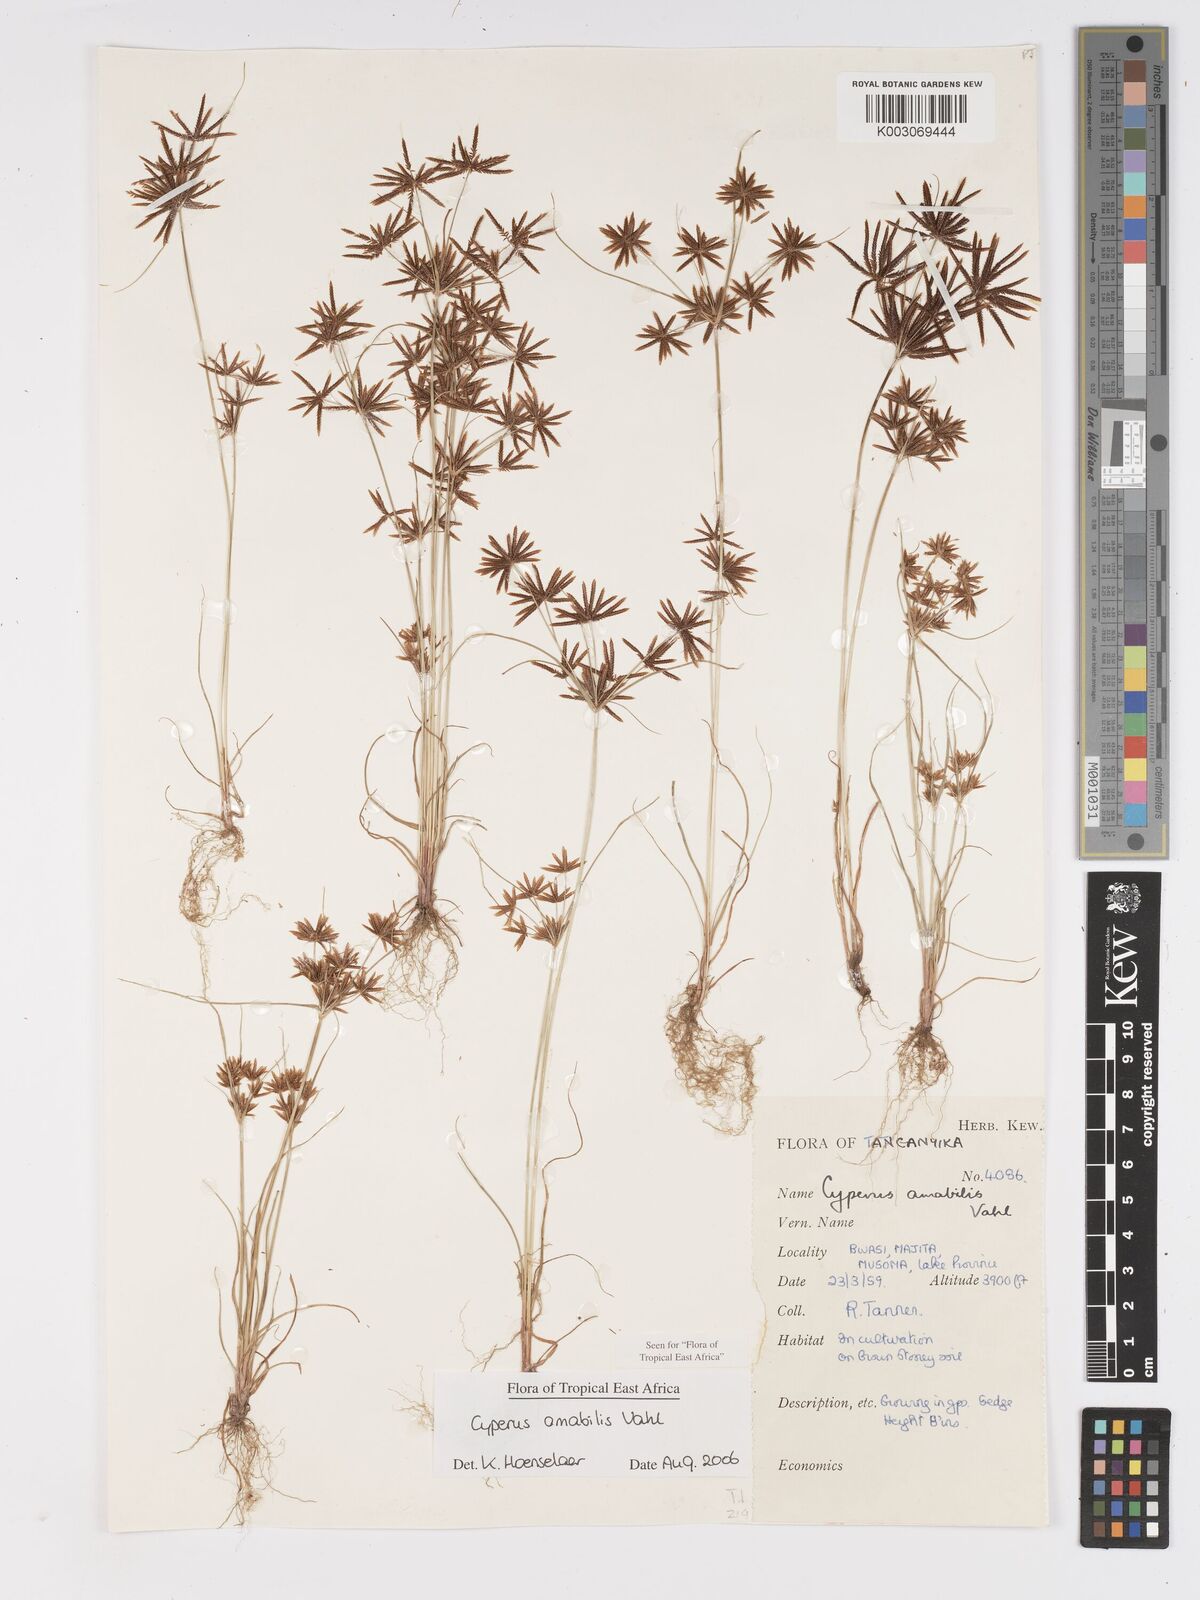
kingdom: Plantae
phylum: Tracheophyta
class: Liliopsida
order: Poales
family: Cyperaceae
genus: Cyperus
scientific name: Cyperus amabilis
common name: Foothill flat sedge
